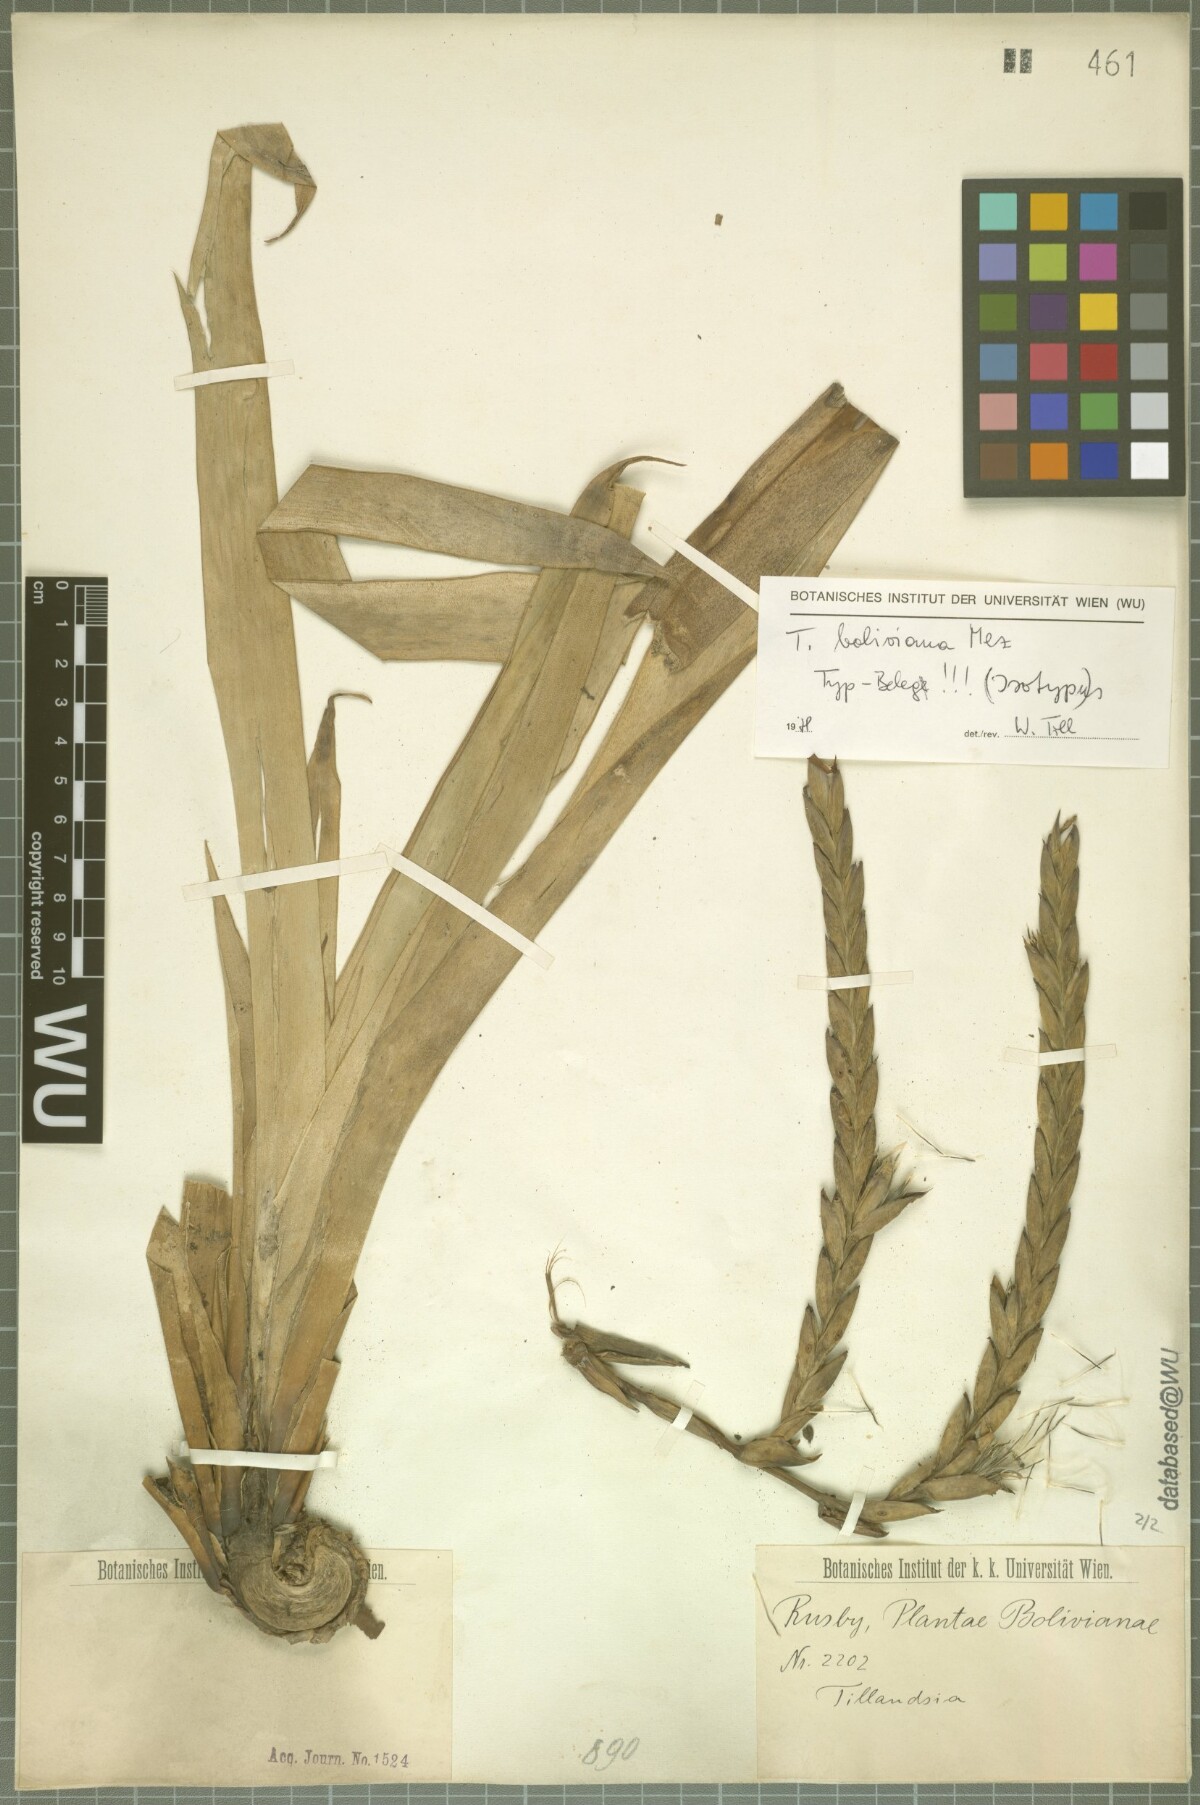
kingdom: Plantae
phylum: Tracheophyta
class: Liliopsida
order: Poales
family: Bromeliaceae
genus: Tillandsia
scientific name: Tillandsia boliviana
